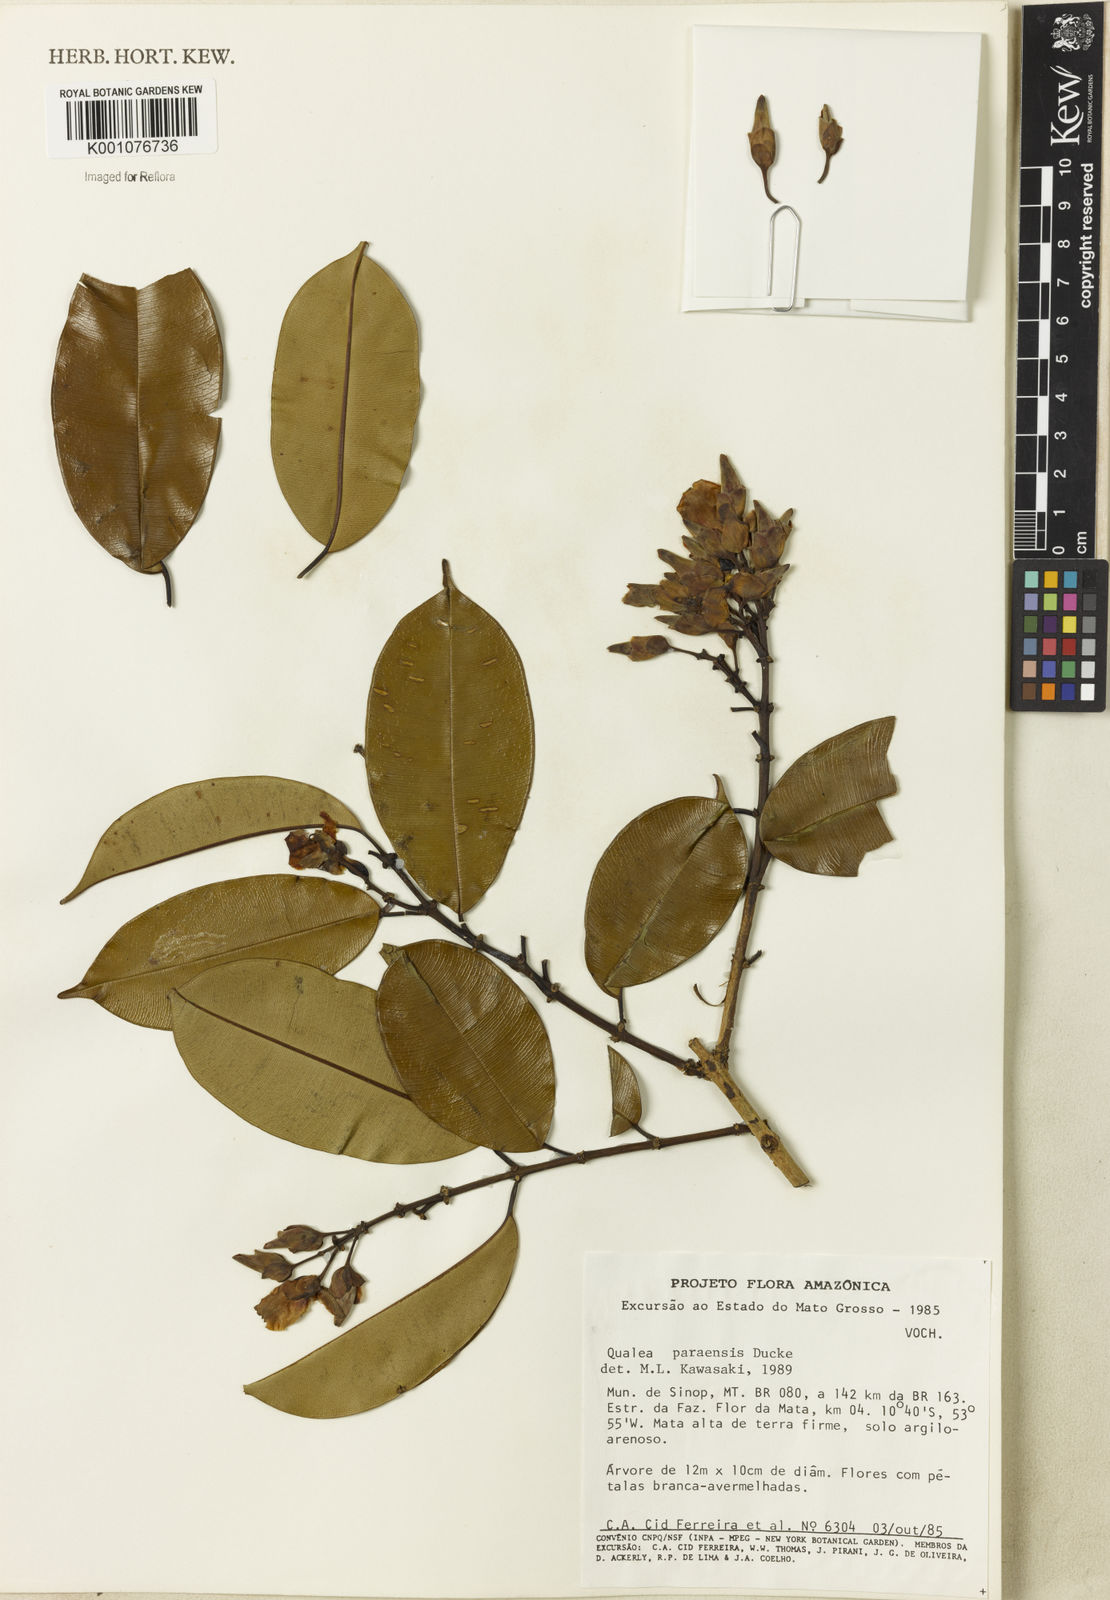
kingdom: Plantae
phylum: Tracheophyta
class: Magnoliopsida
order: Myrtales
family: Vochysiaceae
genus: Qualea
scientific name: Qualea paraensis
